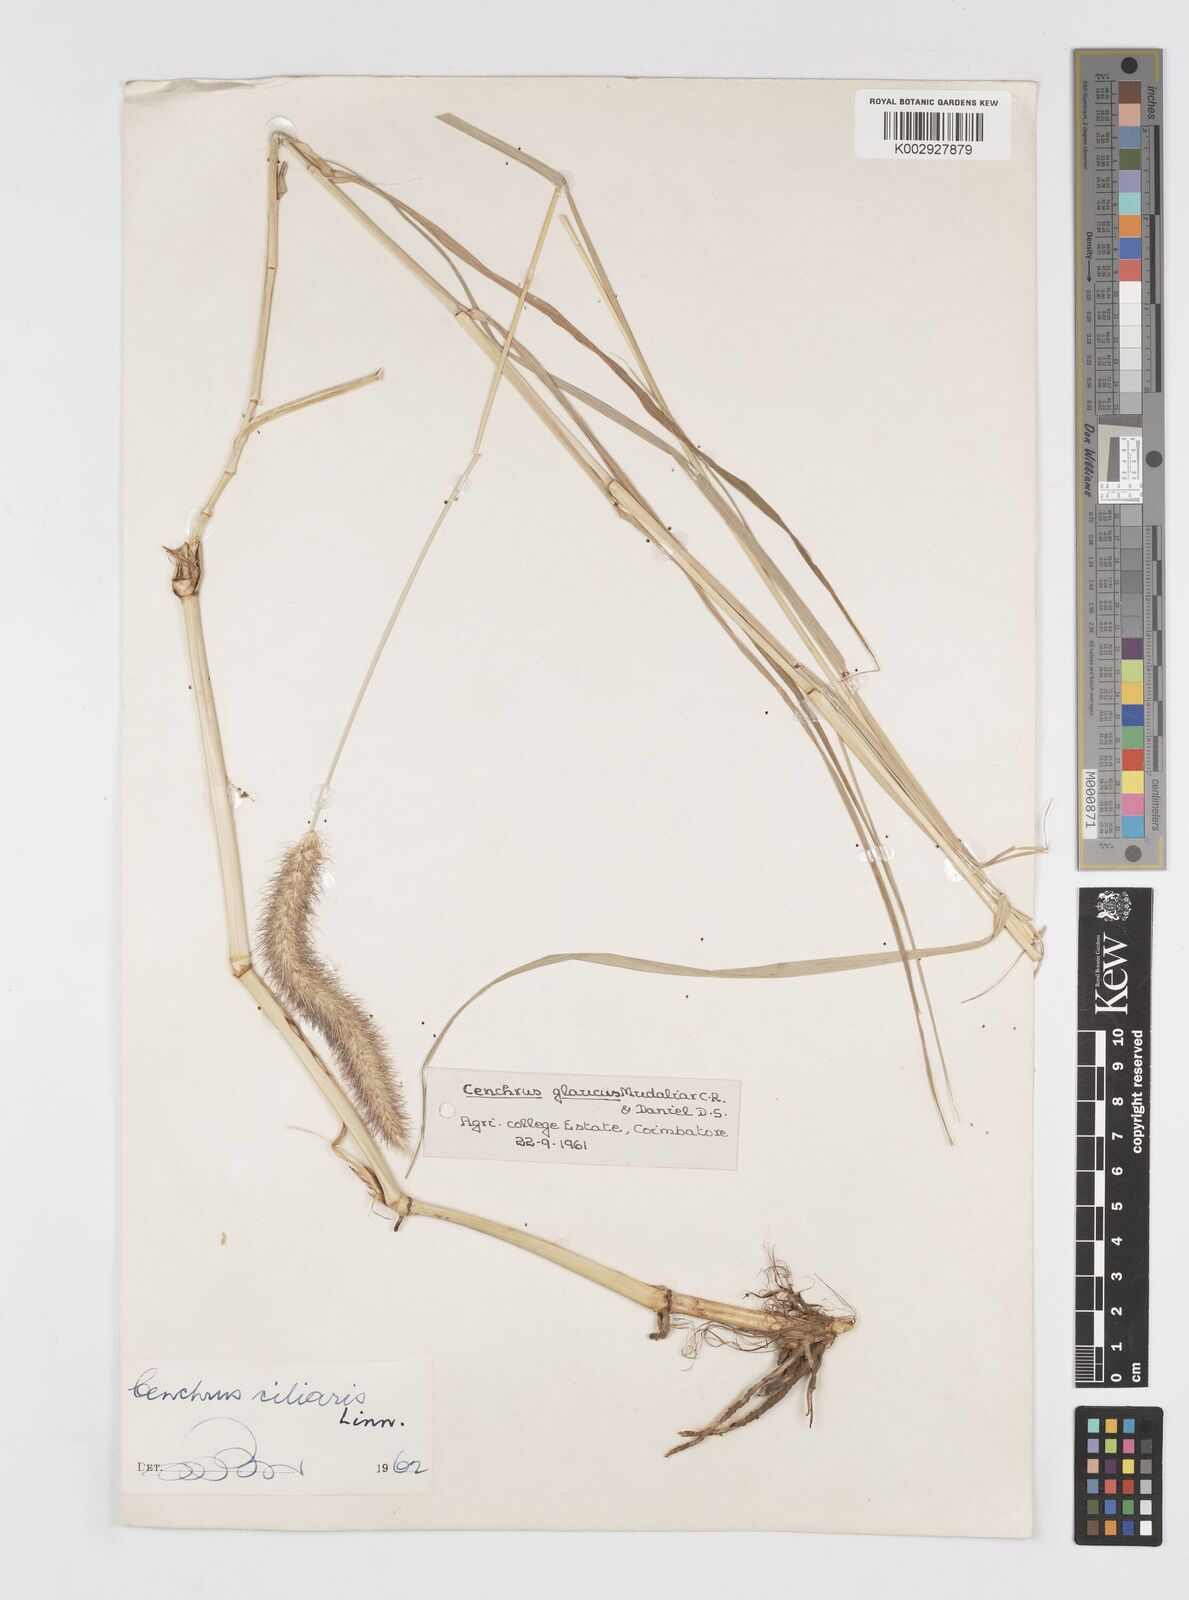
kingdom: Plantae
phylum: Tracheophyta
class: Liliopsida
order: Poales
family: Poaceae
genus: Cenchrus
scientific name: Cenchrus ciliaris
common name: Buffelgrass
